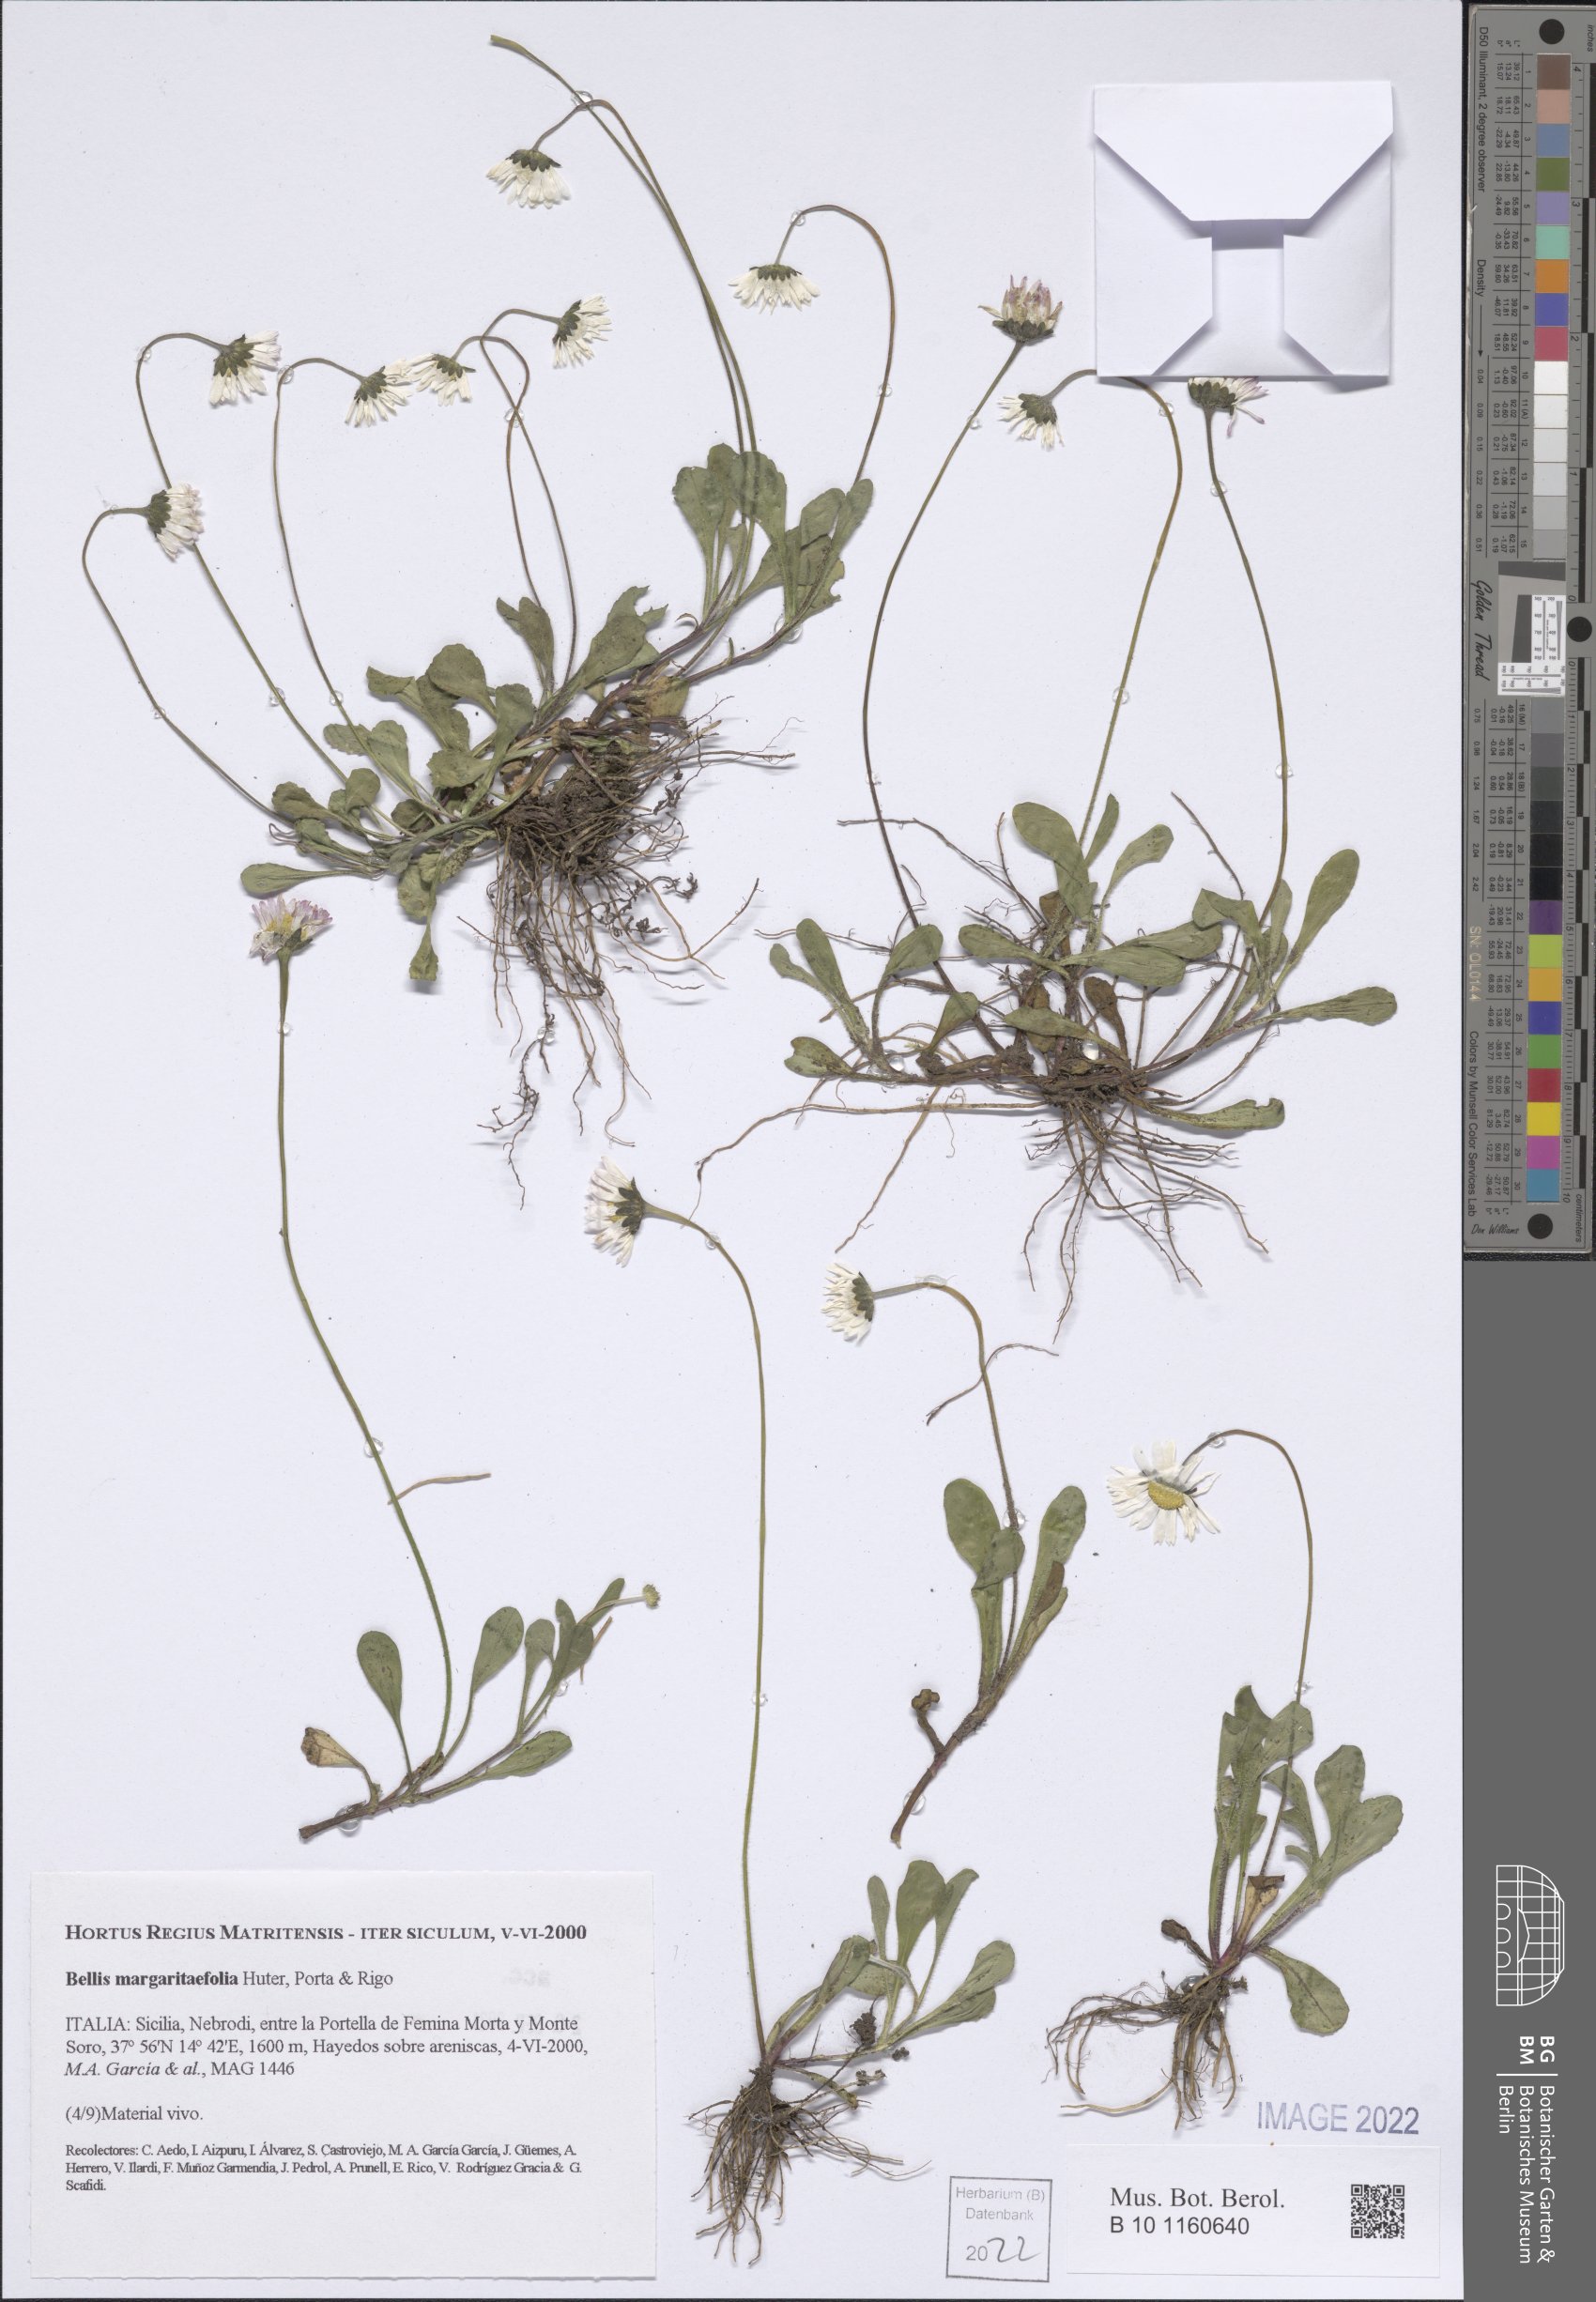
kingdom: Plantae
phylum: Tracheophyta
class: Magnoliopsida
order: Asterales
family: Asteraceae
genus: Bellis
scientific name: Bellis margaritifolia
